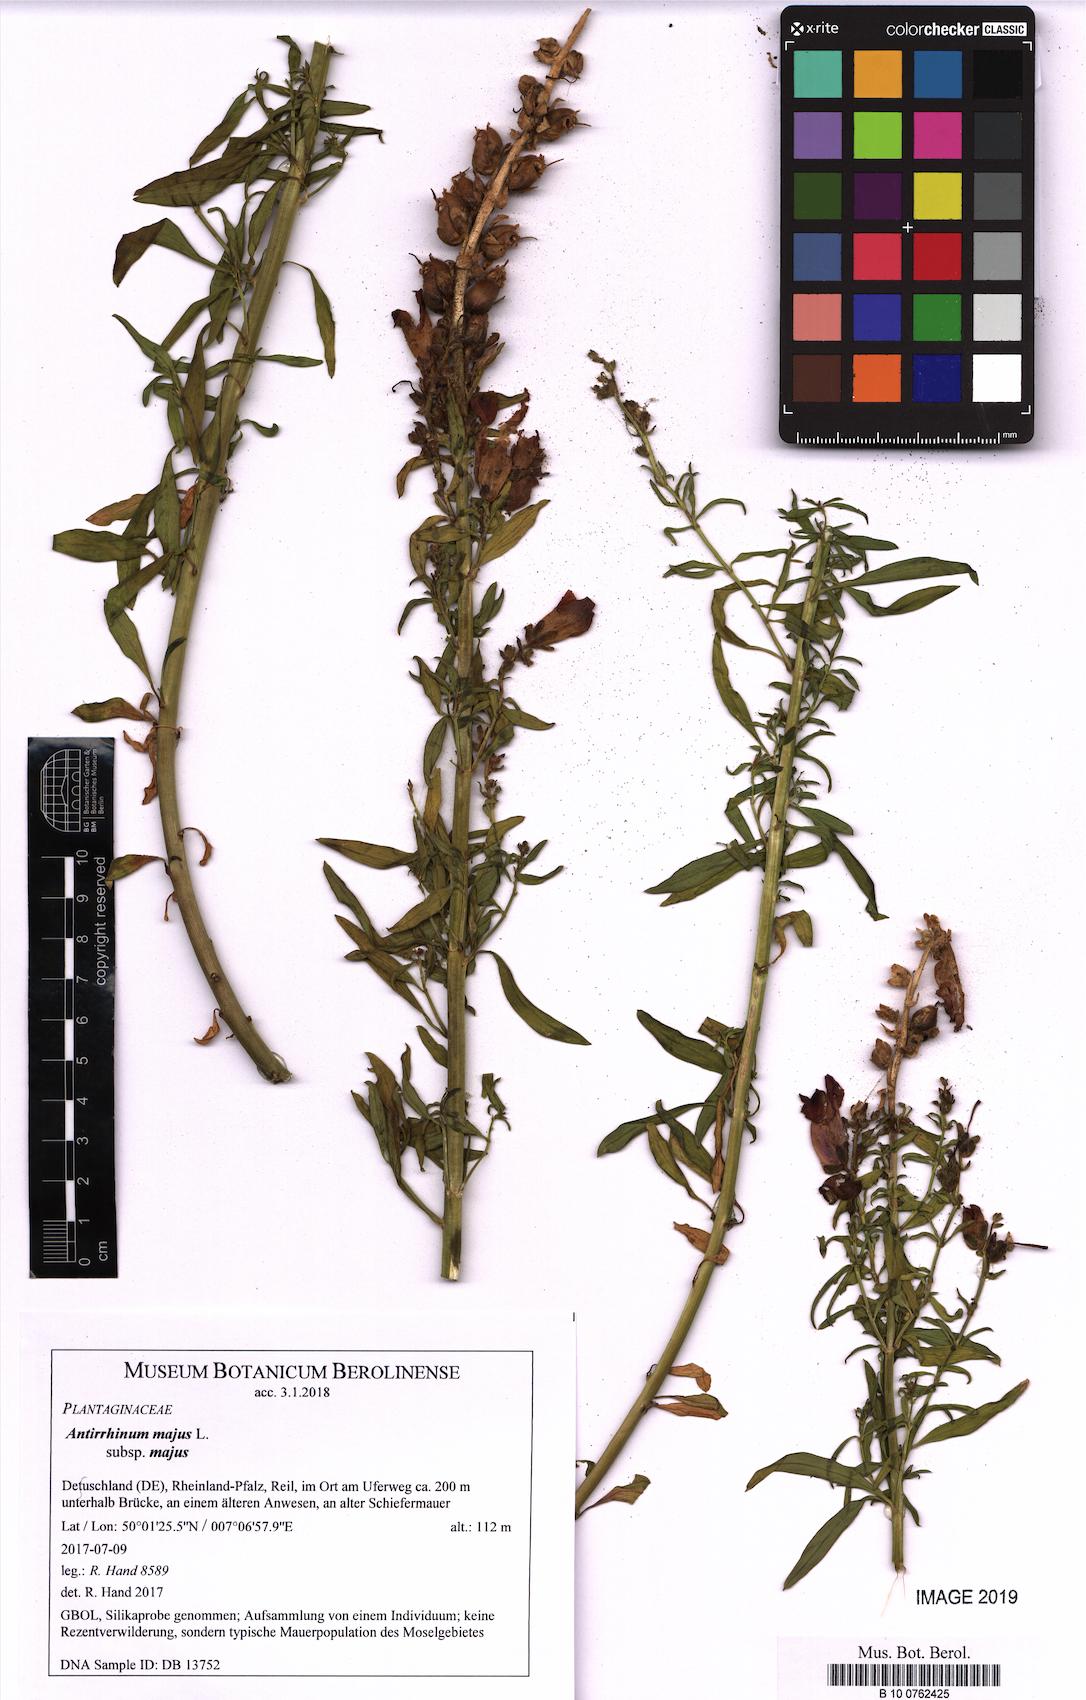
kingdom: Plantae
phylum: Tracheophyta
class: Magnoliopsida
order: Lamiales
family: Plantaginaceae
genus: Antirrhinum
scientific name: Antirrhinum majus
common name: Snapdragon
